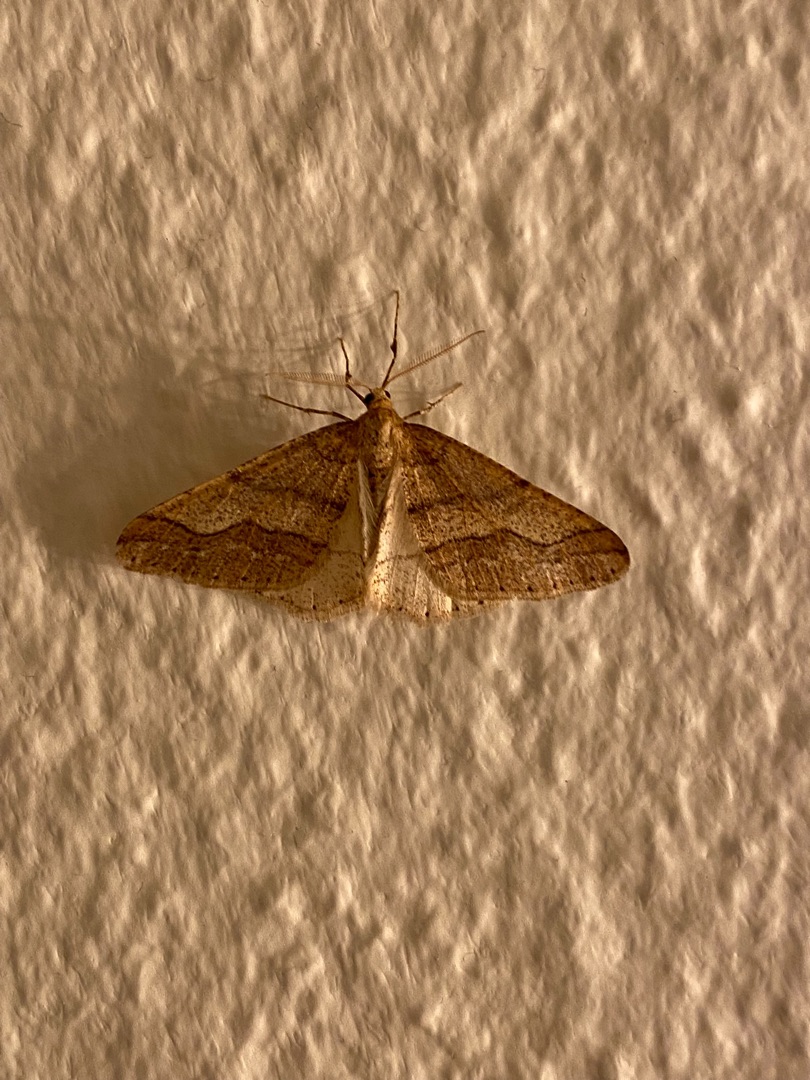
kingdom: Animalia
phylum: Arthropoda
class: Insecta
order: Lepidoptera
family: Geometridae
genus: Agriopis
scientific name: Agriopis marginaria
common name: Grågul frostmåler
